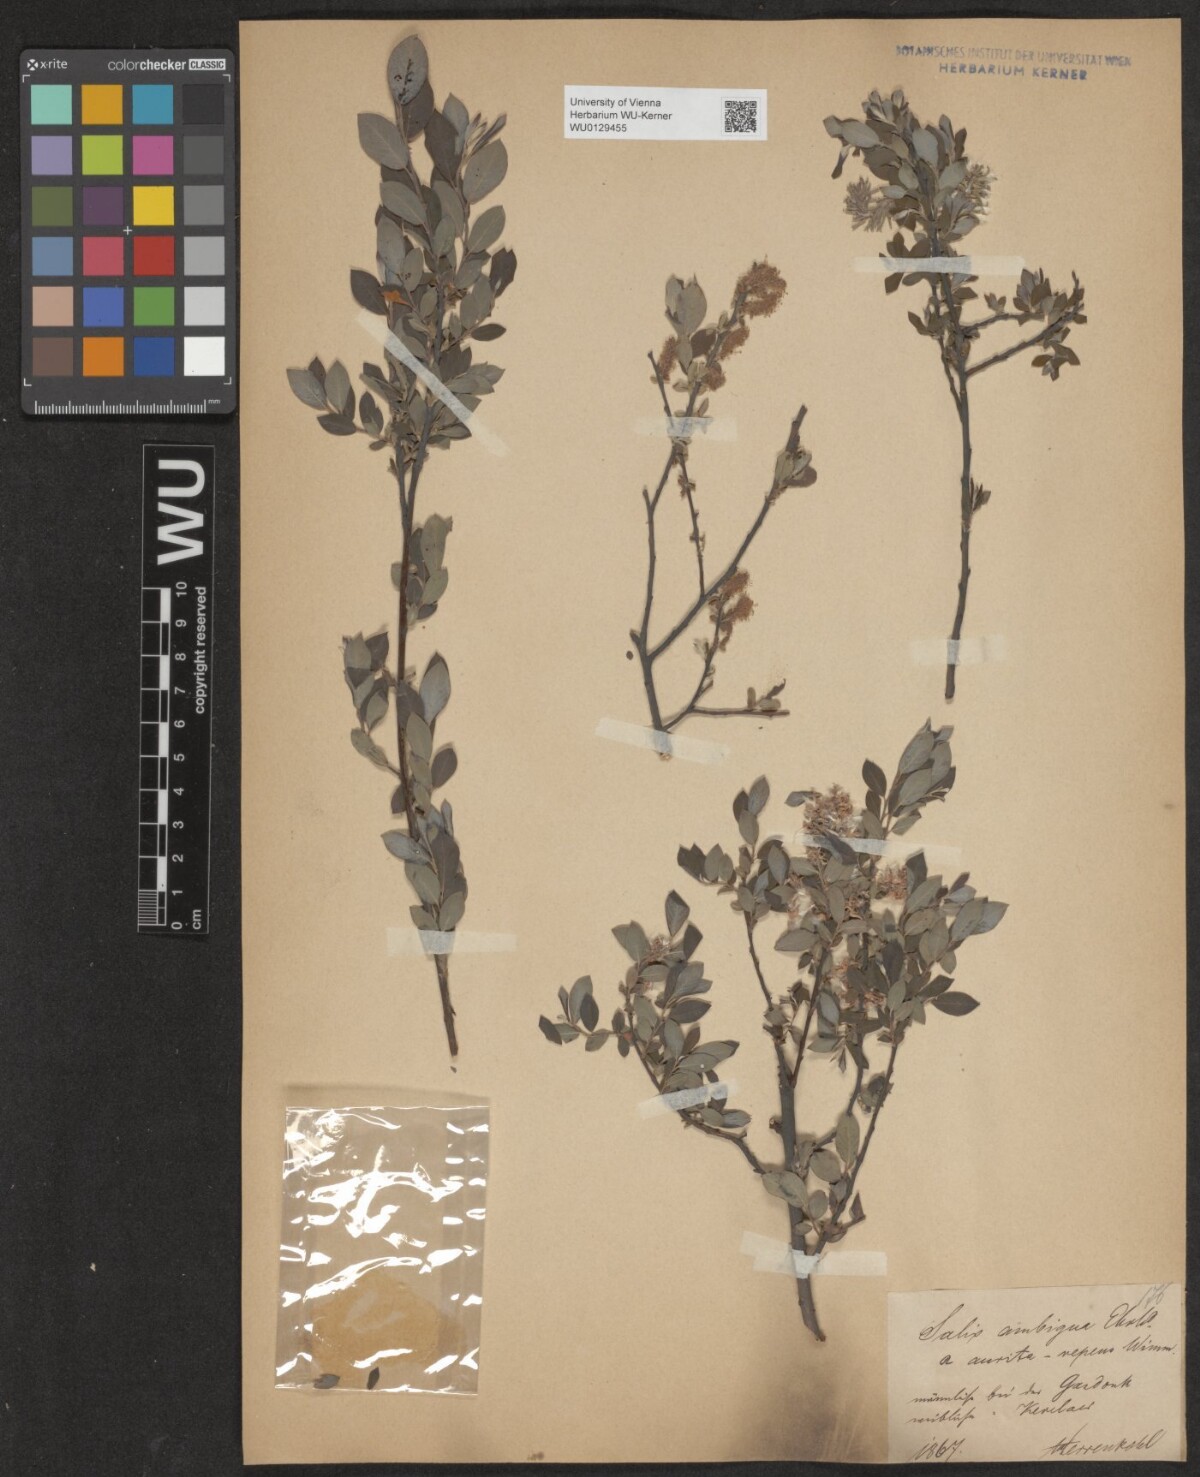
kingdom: Plantae
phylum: Tracheophyta
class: Magnoliopsida
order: Malpighiales
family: Salicaceae
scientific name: Salicaceae
